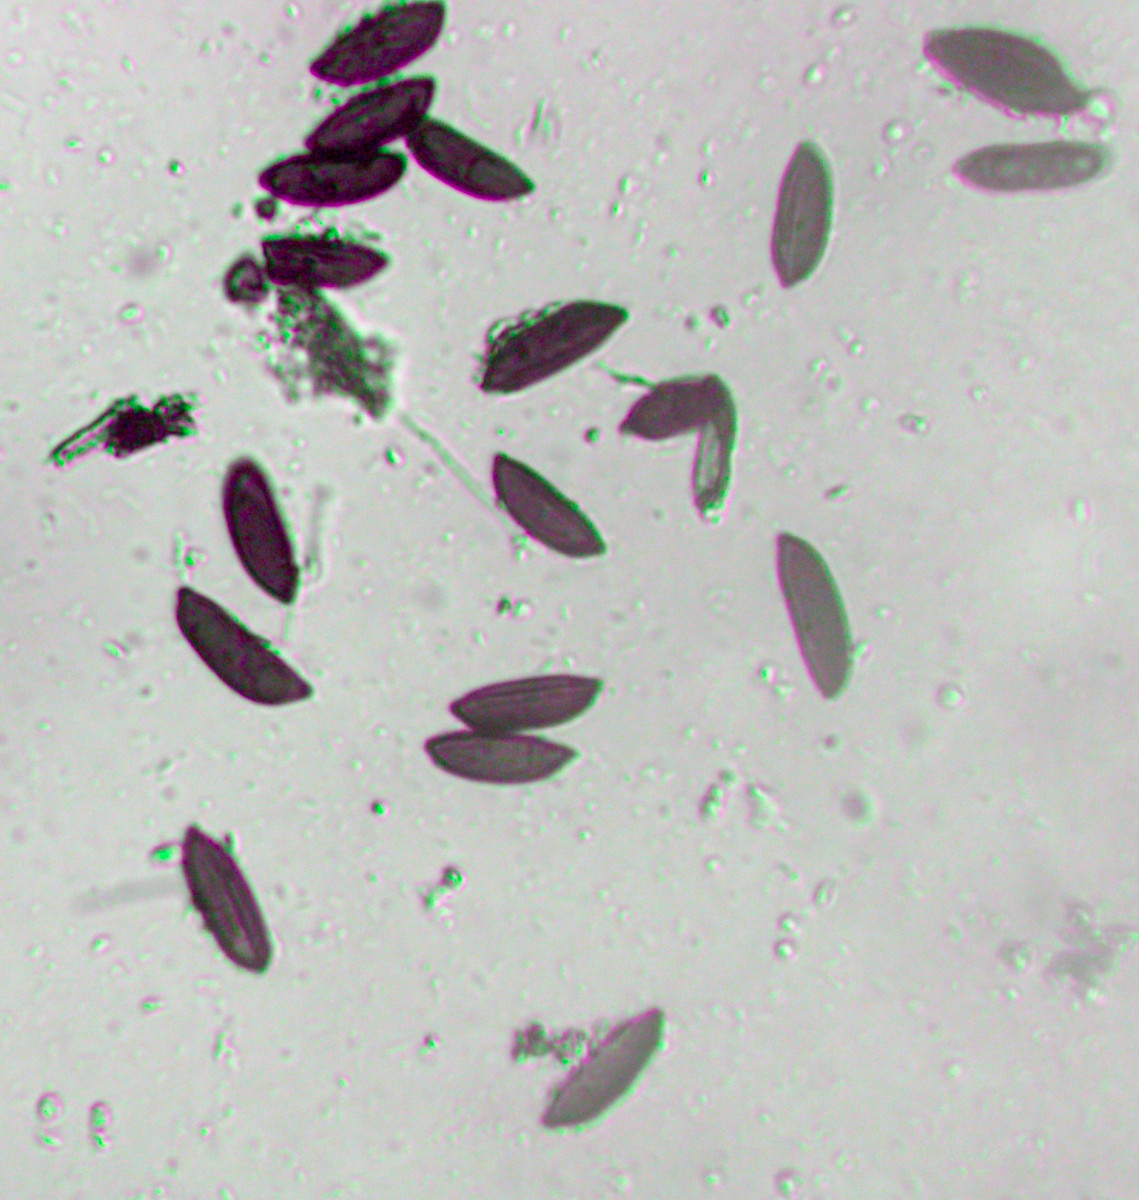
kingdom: Fungi
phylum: Ascomycota
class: Sordariomycetes
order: Xylariales
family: Xylariaceae
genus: Rosellinia
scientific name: Rosellinia marcucciana
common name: måtteløs kulkaviar
